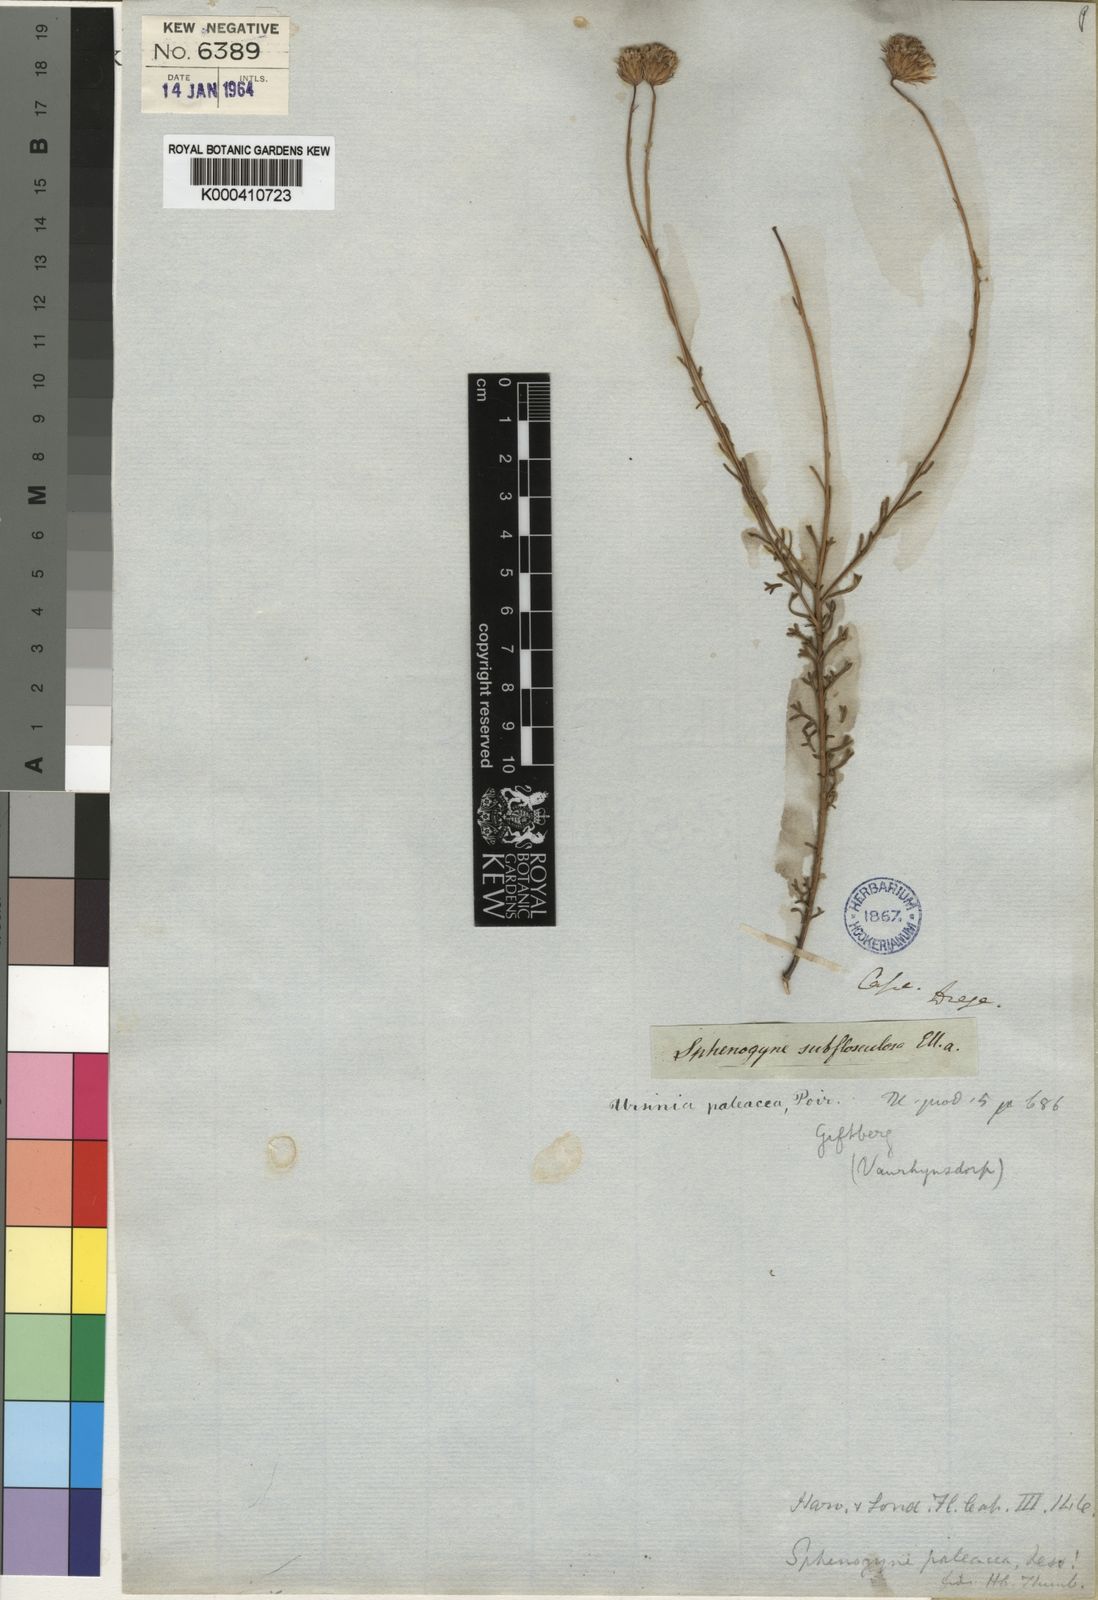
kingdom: Plantae
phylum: Tracheophyta
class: Magnoliopsida
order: Asterales
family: Asteraceae
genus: Ursinia
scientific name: Ursinia subflosculosa
